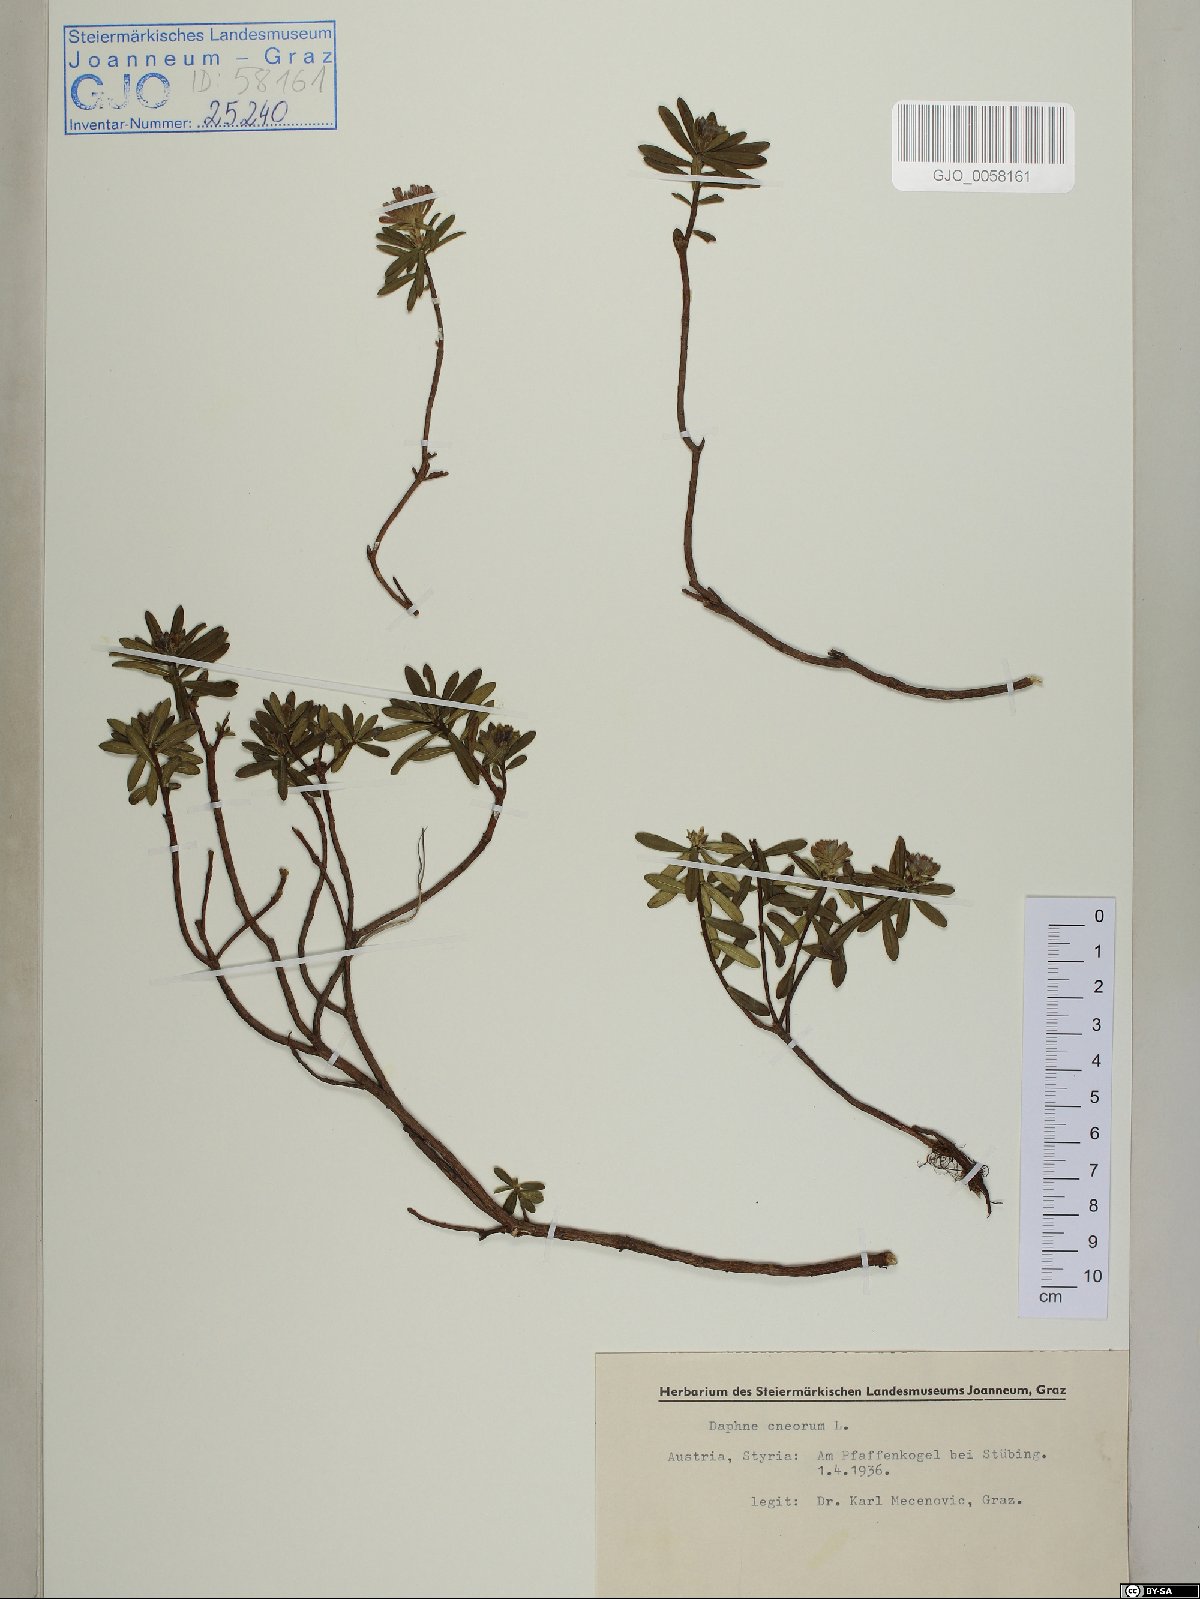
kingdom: Plantae
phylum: Tracheophyta
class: Magnoliopsida
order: Malvales
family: Thymelaeaceae
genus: Daphne
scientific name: Daphne cneorum
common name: Garland-flower
